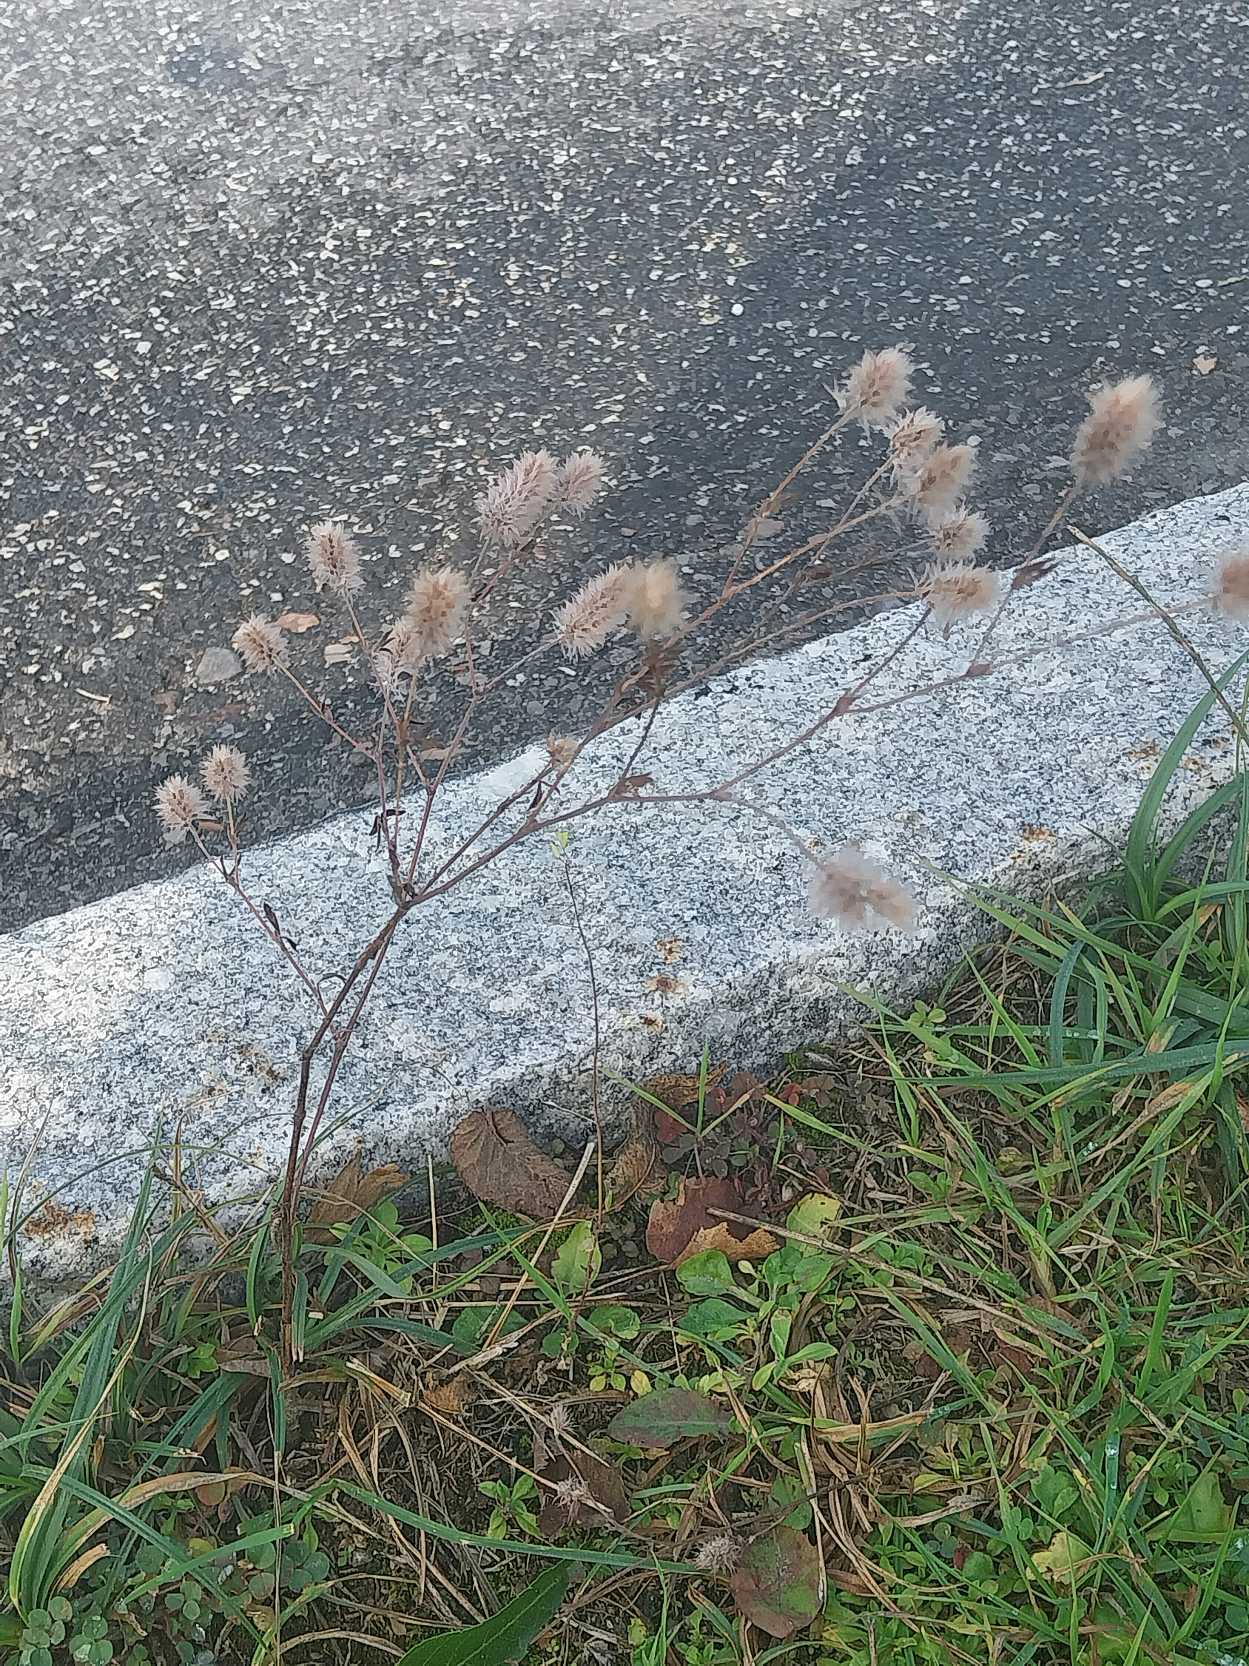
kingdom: Plantae
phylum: Tracheophyta
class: Magnoliopsida
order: Fabales
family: Fabaceae
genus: Trifolium
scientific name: Trifolium arvense
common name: Hare-kløver
